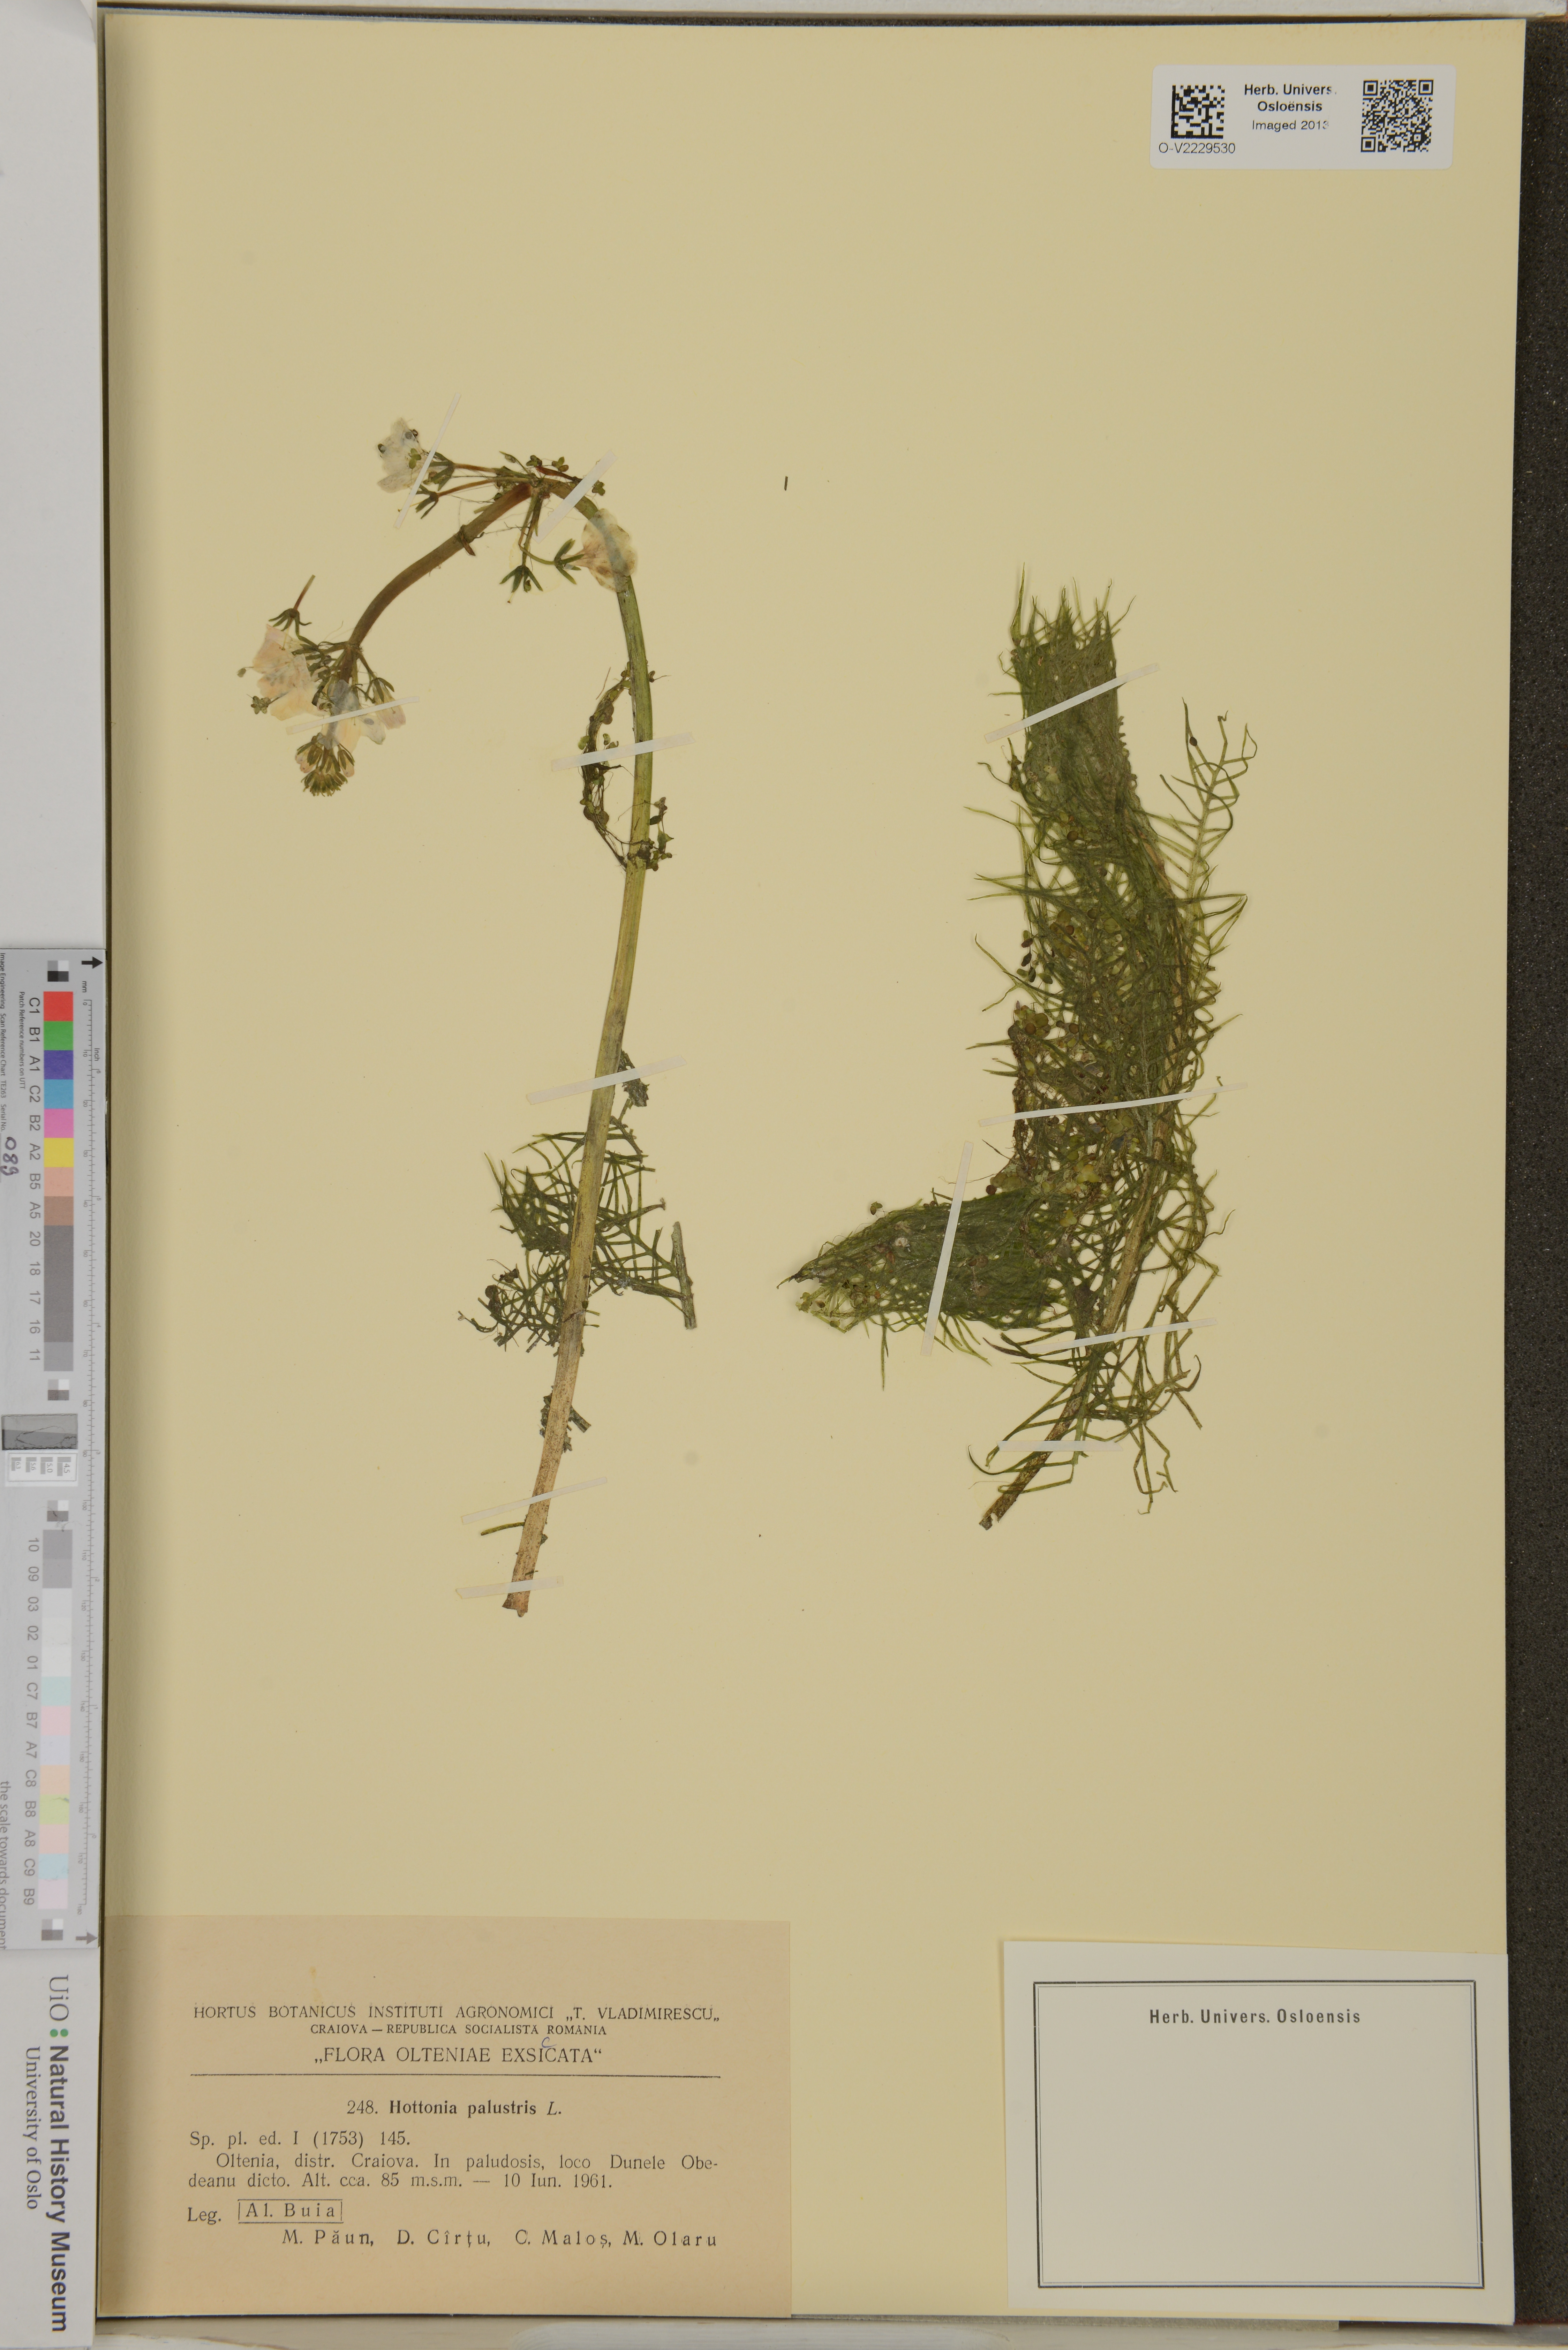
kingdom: Plantae
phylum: Tracheophyta
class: Magnoliopsida
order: Ericales
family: Primulaceae
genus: Hottonia
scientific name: Hottonia palustris
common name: Water-violet
